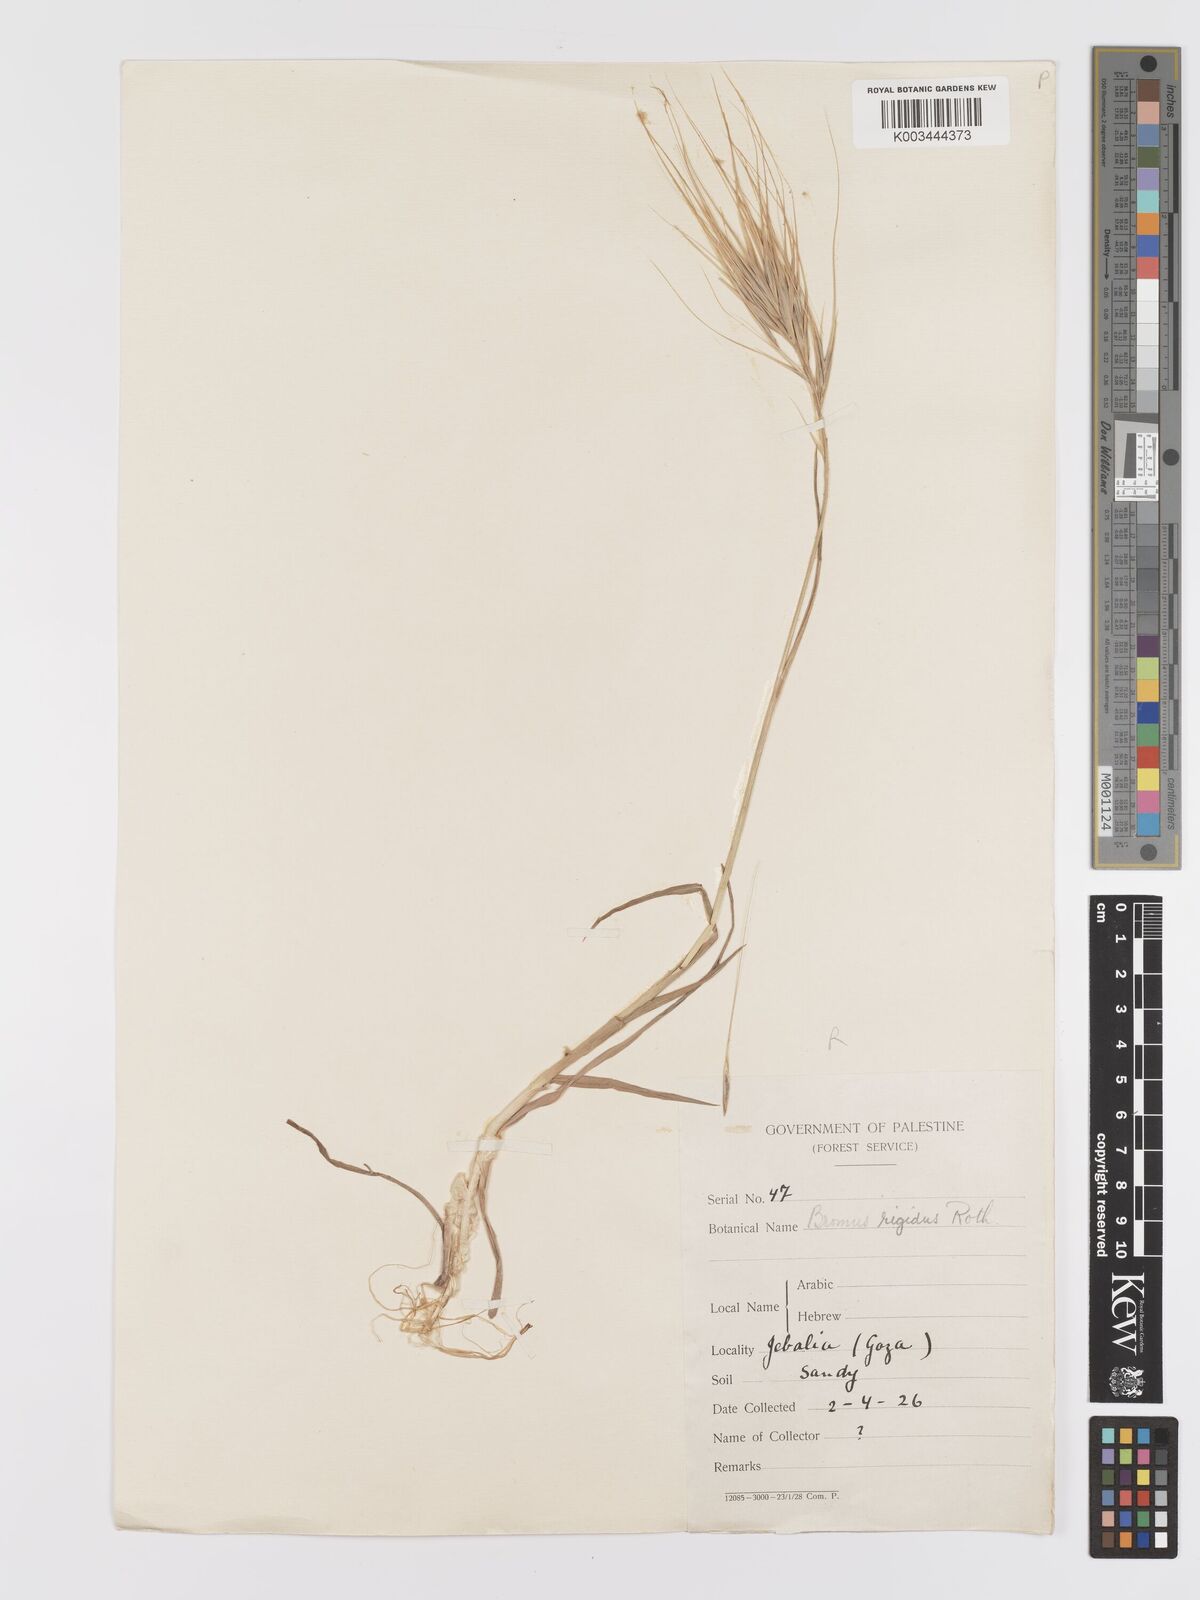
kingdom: Plantae
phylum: Tracheophyta
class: Liliopsida
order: Poales
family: Poaceae
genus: Bromus
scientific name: Bromus
